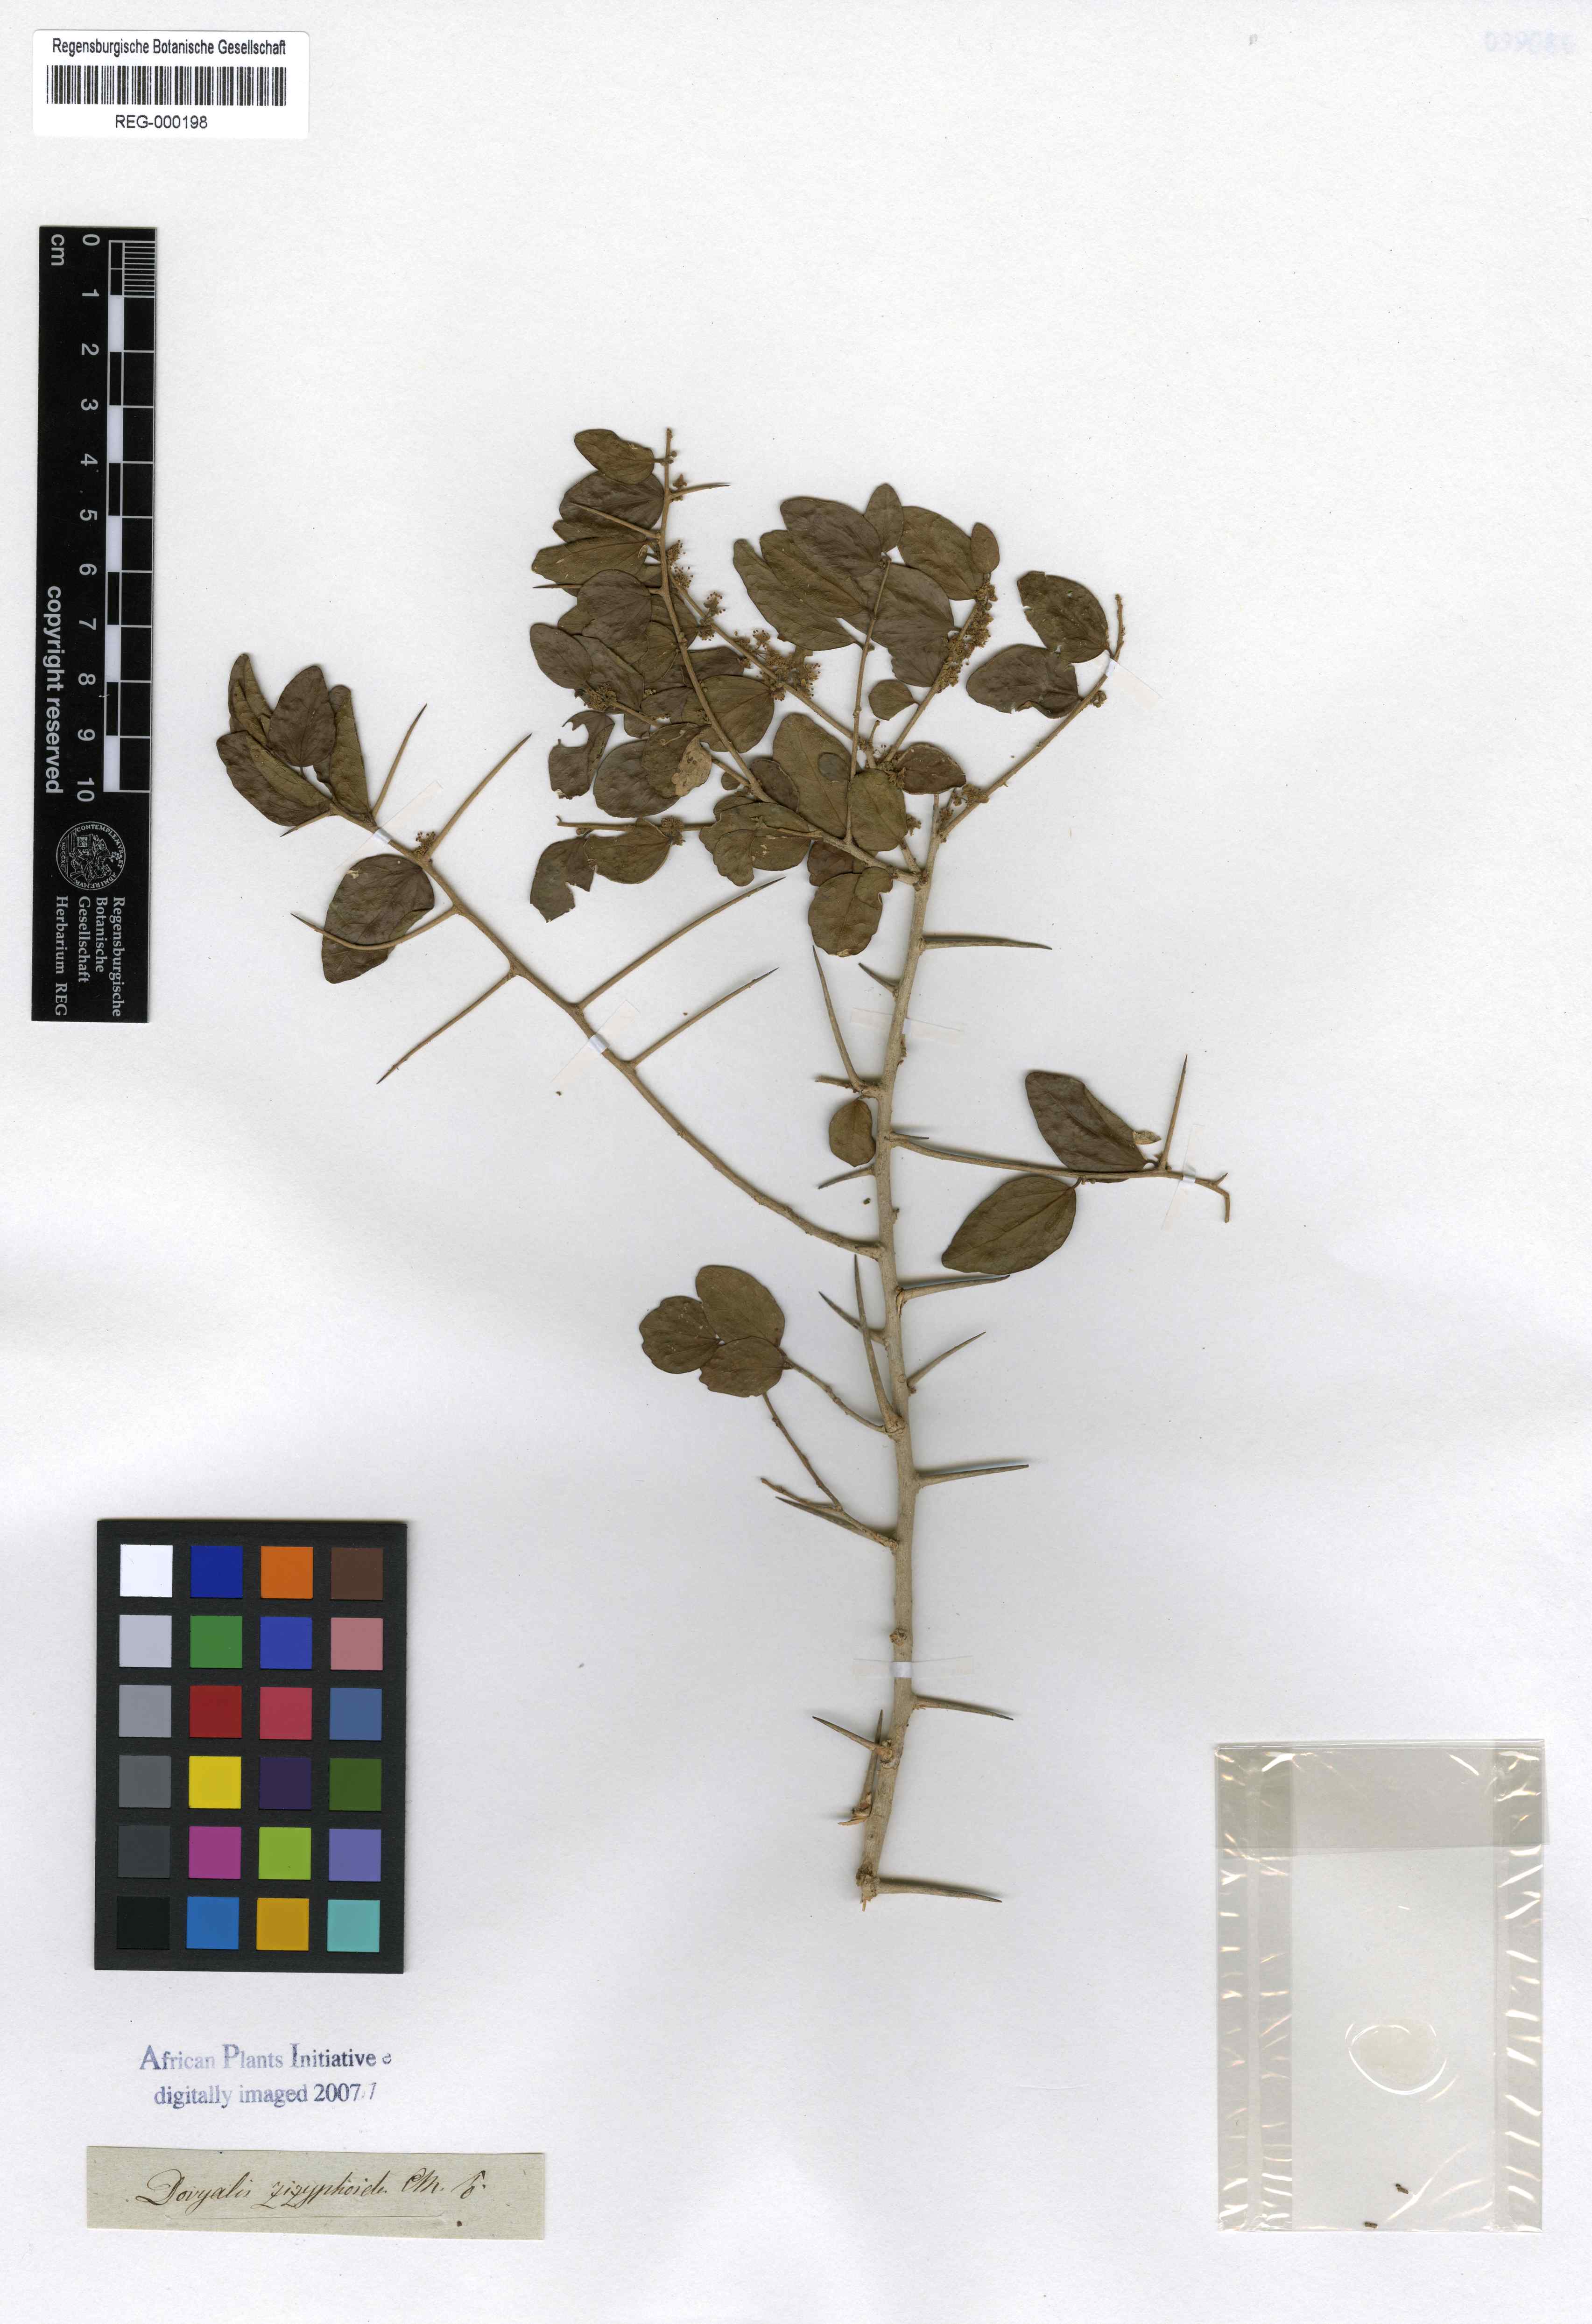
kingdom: Plantae
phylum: Tracheophyta
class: Magnoliopsida
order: Malpighiales
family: Salicaceae
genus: Dovyalis
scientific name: Dovyalis rhamnoides
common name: Sourberry
